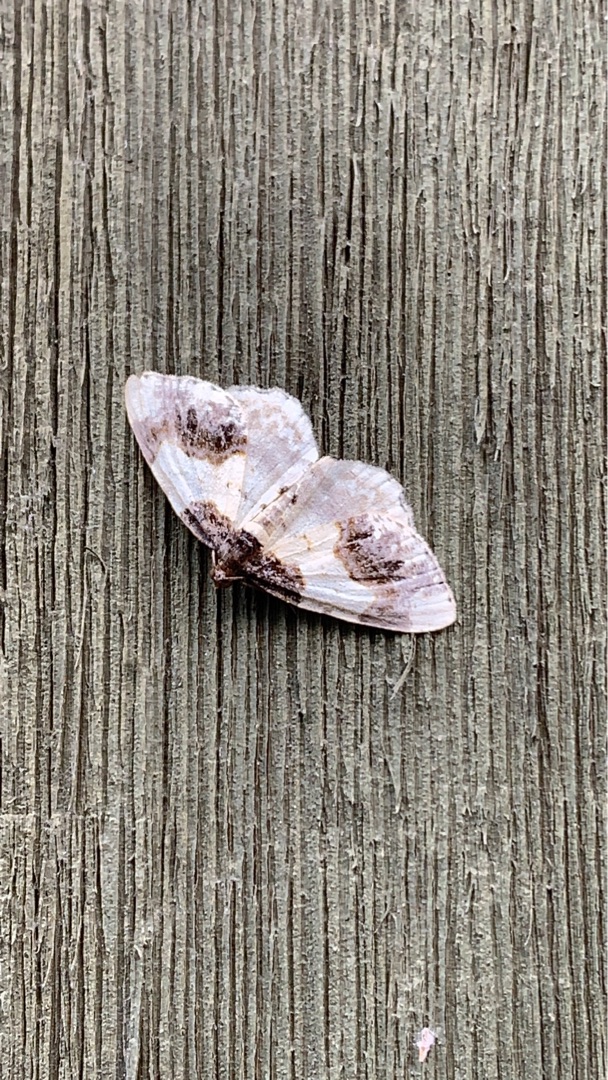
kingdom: Animalia
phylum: Arthropoda
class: Insecta
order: Lepidoptera
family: Geometridae
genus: Ligdia
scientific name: Ligdia adustata
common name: Benvedmåler
